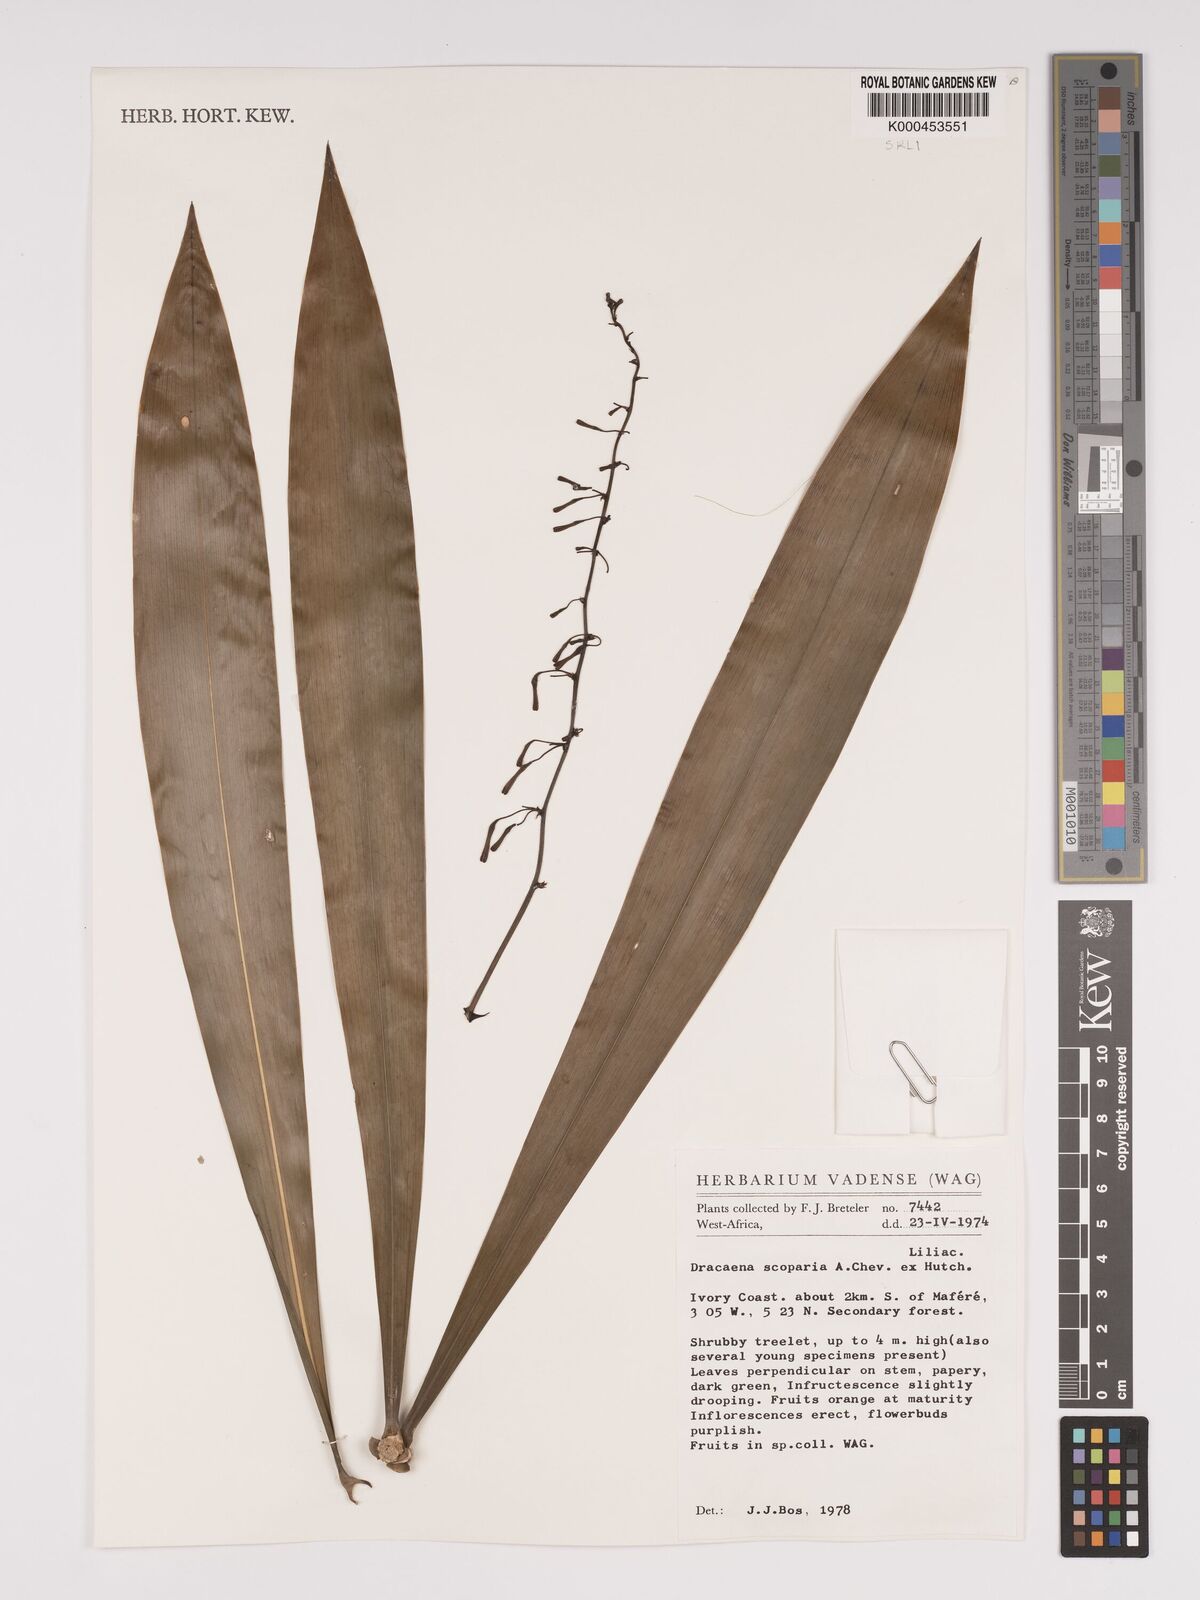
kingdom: Plantae
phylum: Tracheophyta
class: Liliopsida
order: Asparagales
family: Asparagaceae
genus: Dracaena
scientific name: Dracaena cerasifera
